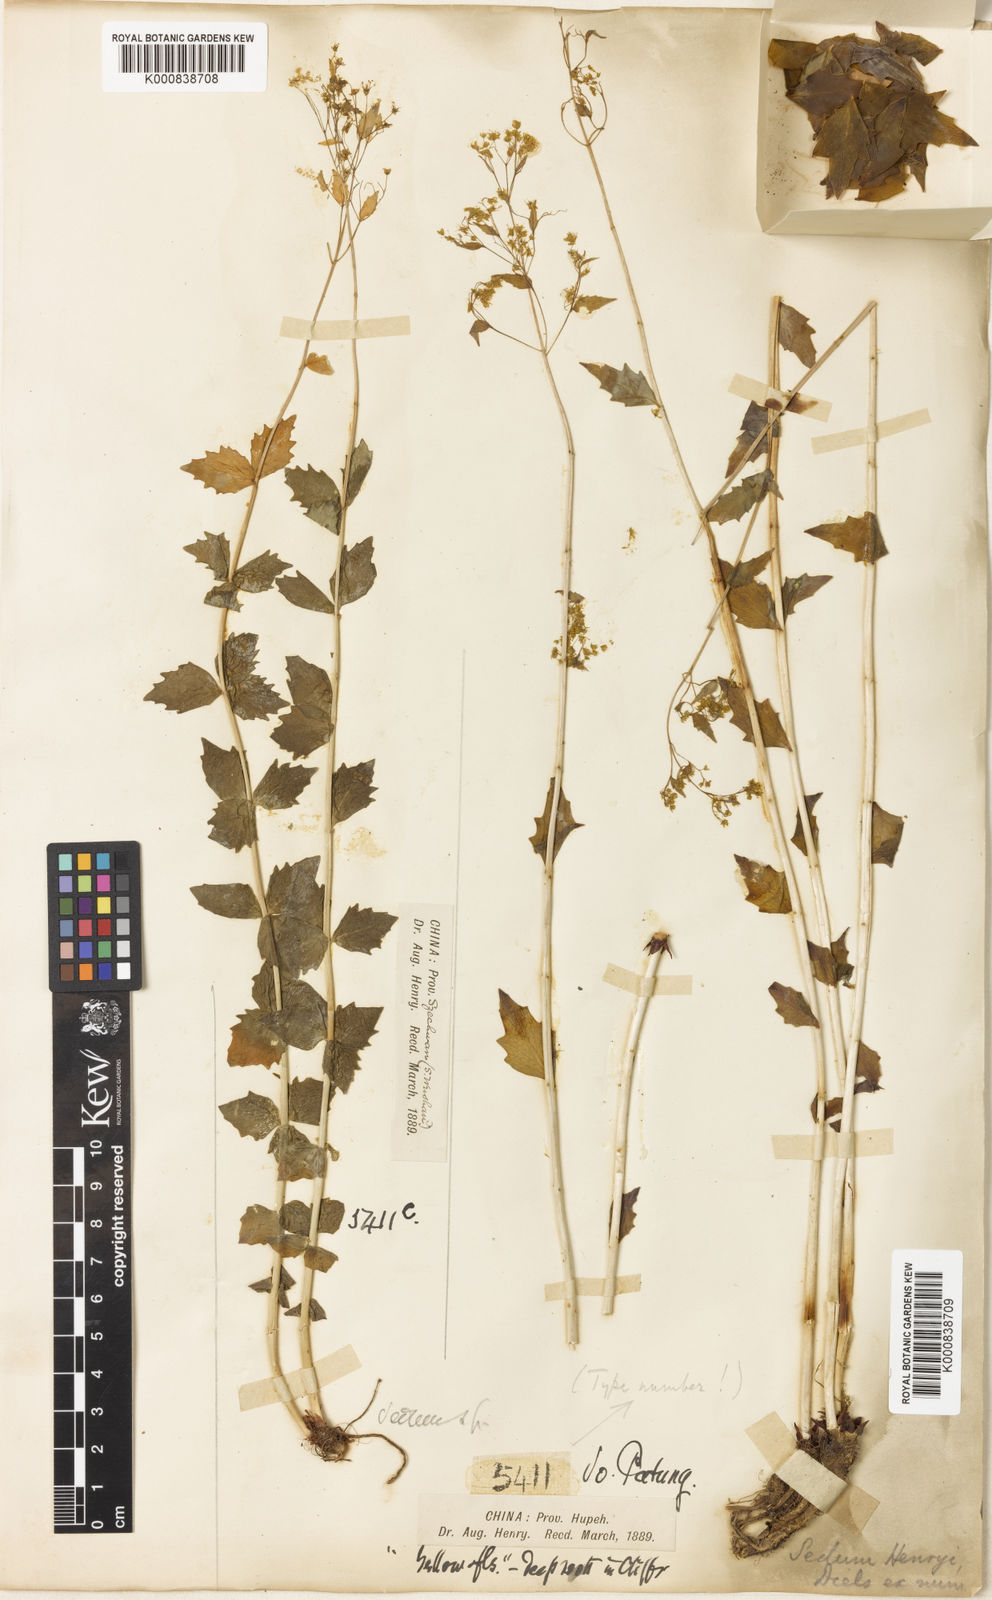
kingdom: Plantae
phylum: Tracheophyta
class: Magnoliopsida
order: Saxifragales
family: Crassulaceae
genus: Rhodiola
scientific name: Rhodiola yunnanensis
